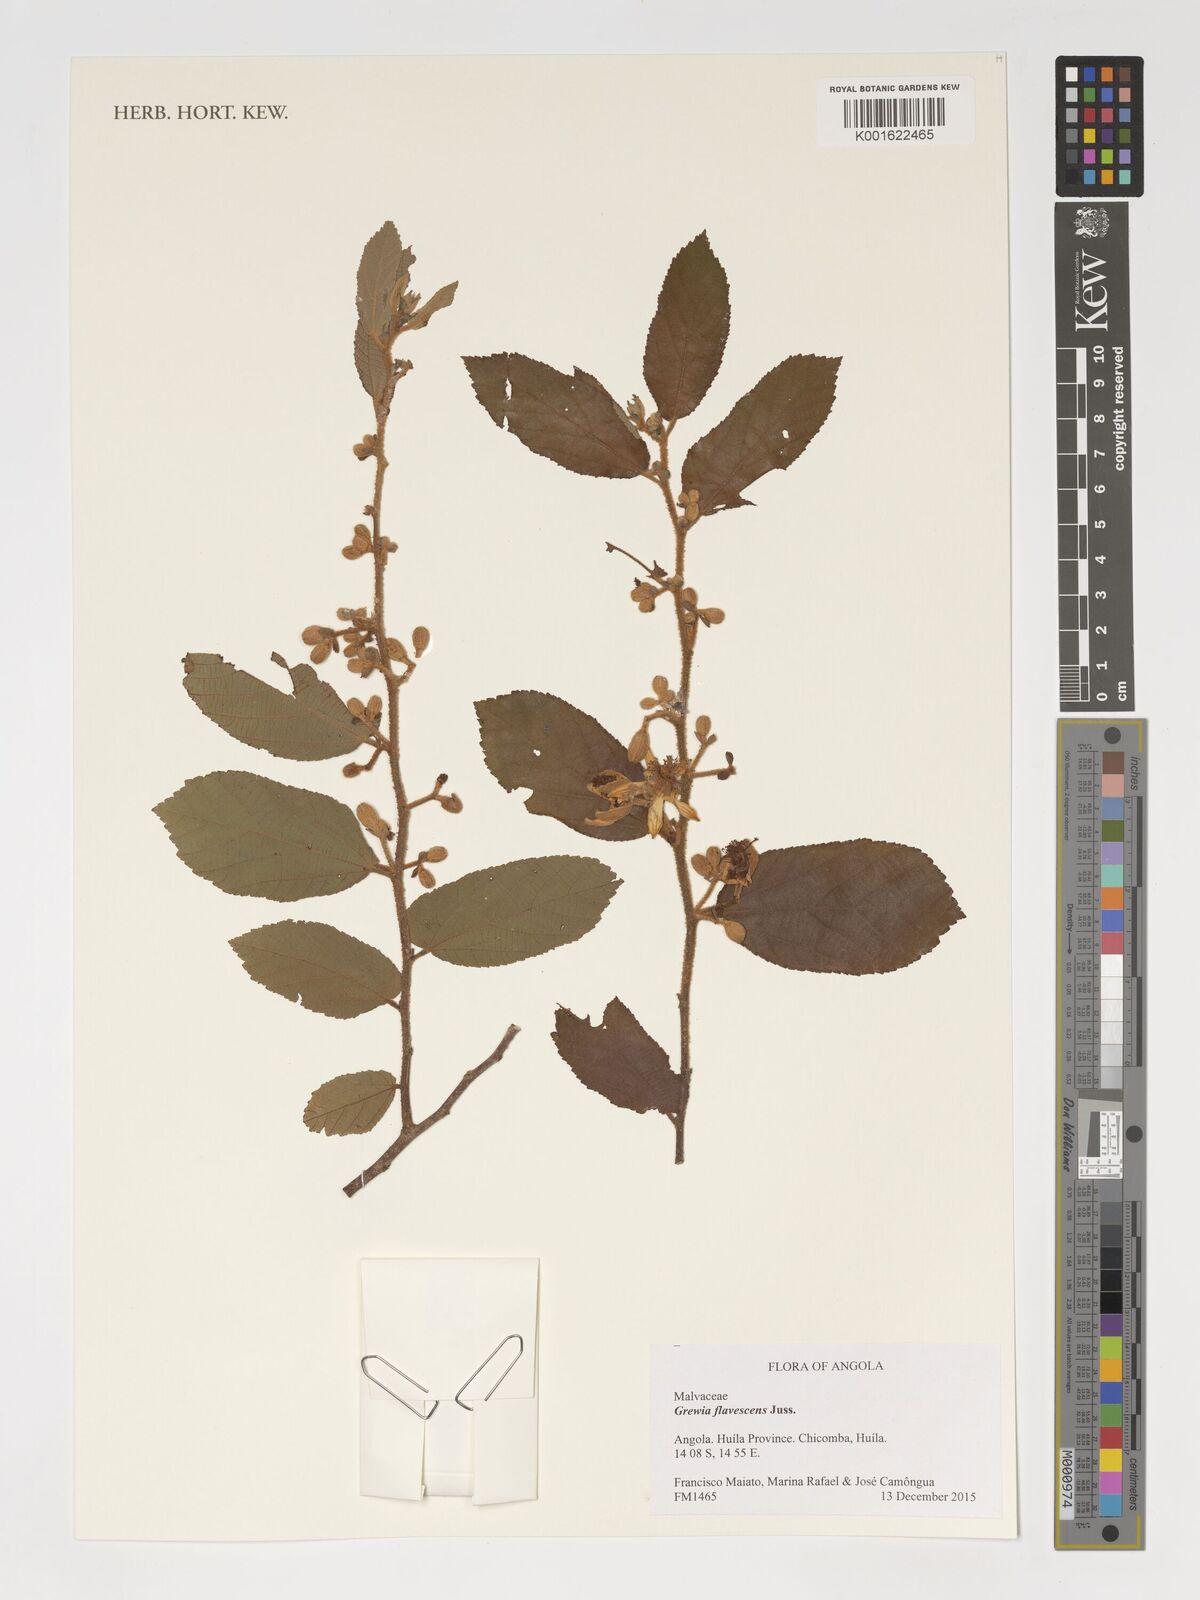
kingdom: Plantae
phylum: Tracheophyta
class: Magnoliopsida
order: Malvales
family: Malvaceae
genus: Grewia
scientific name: Grewia flavescens
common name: Sandpaper raisin
